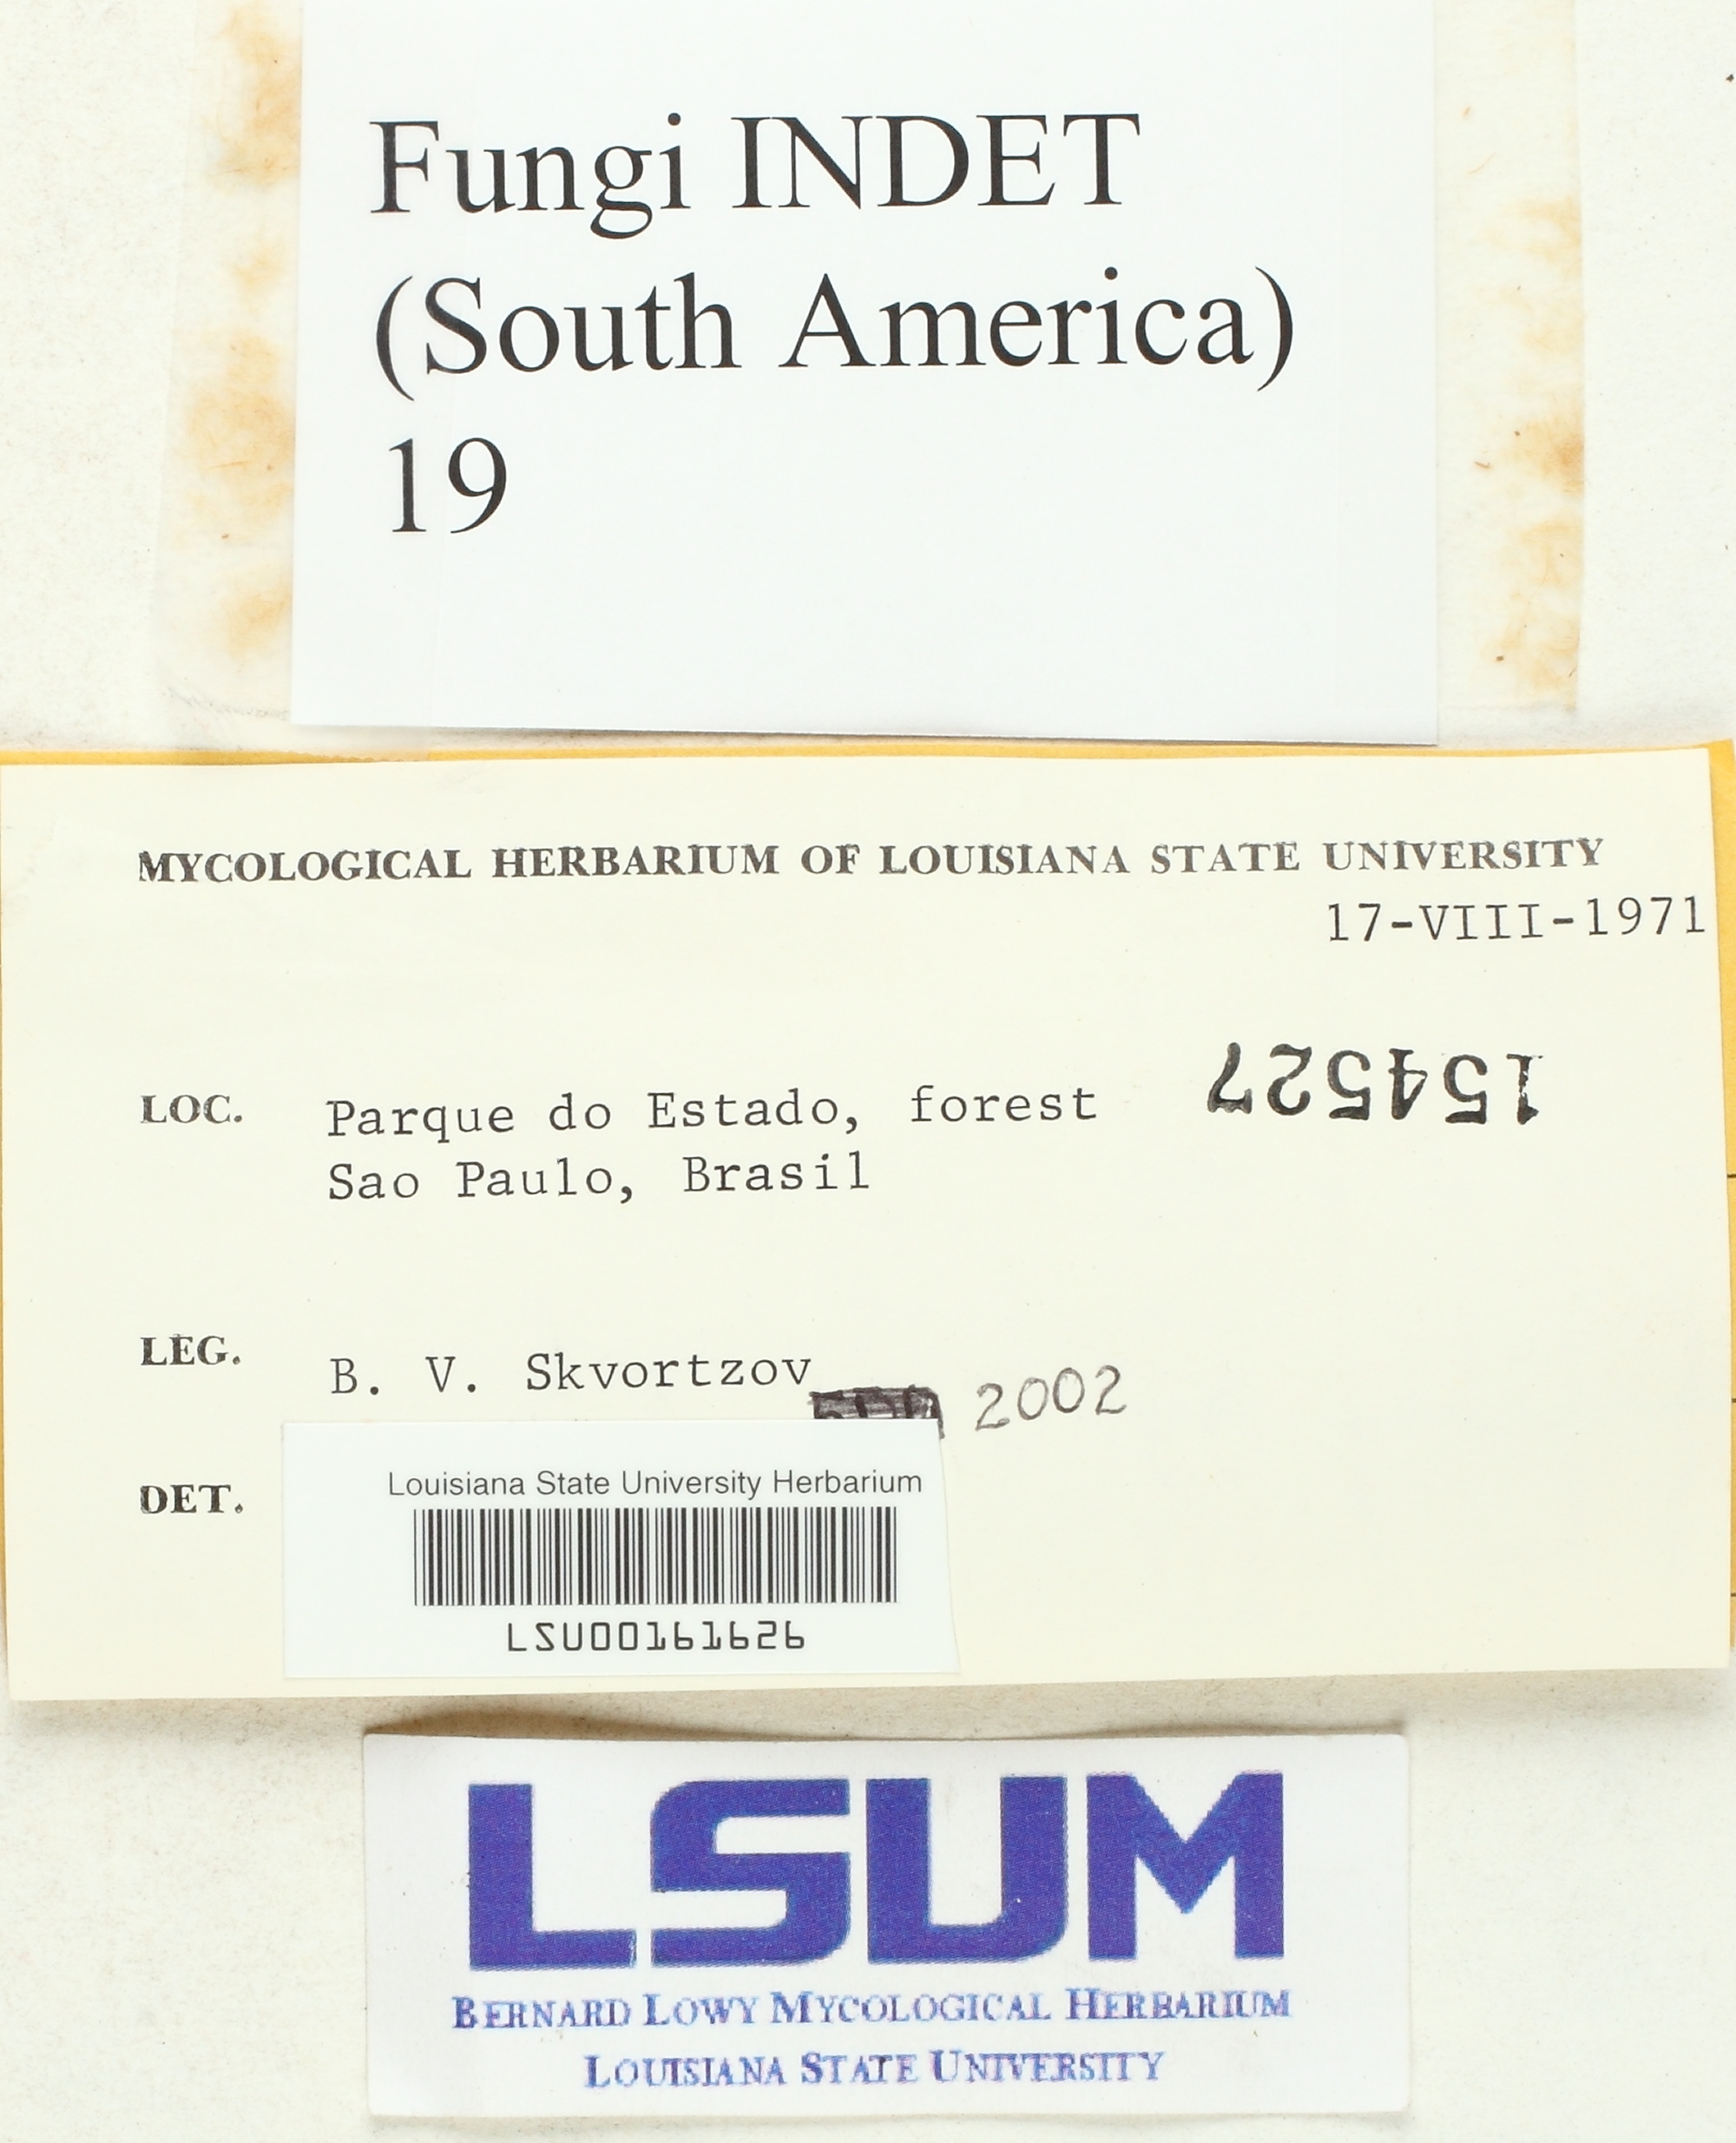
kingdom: Fungi
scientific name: Fungi
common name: Fungi
